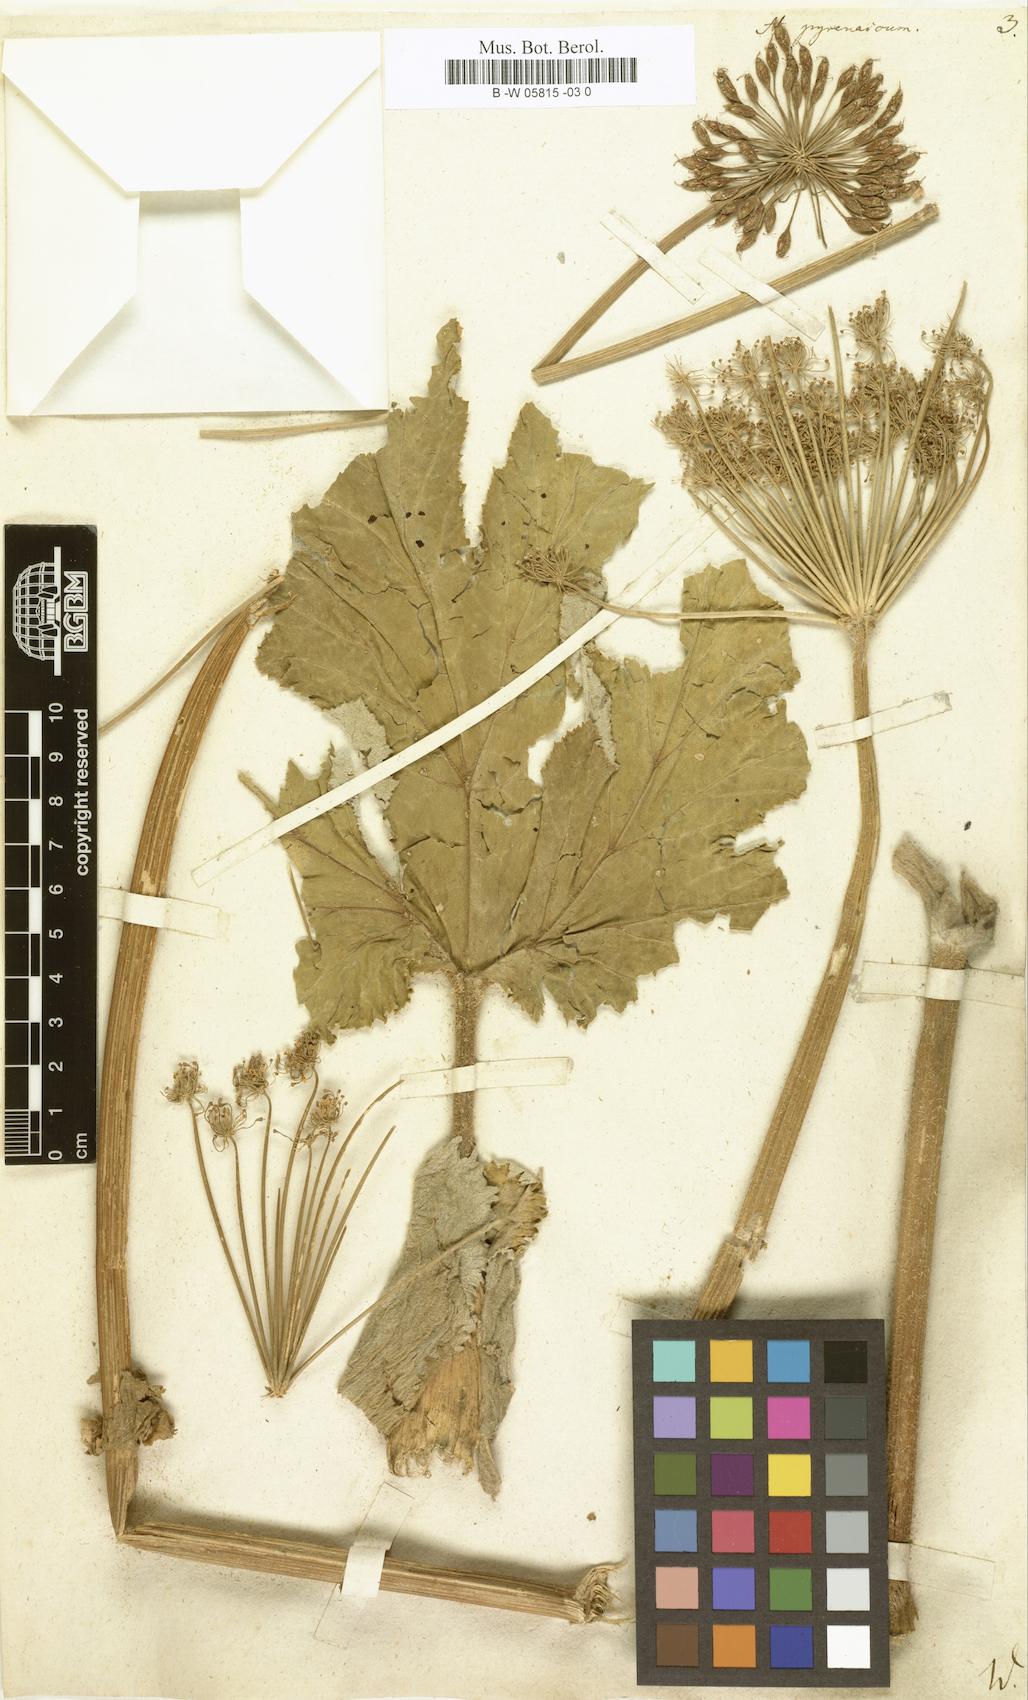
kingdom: Plantae
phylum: Tracheophyta
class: Magnoliopsida
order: Apiales
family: Apiaceae
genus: Heracleum
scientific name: Heracleum pyrenaicum
